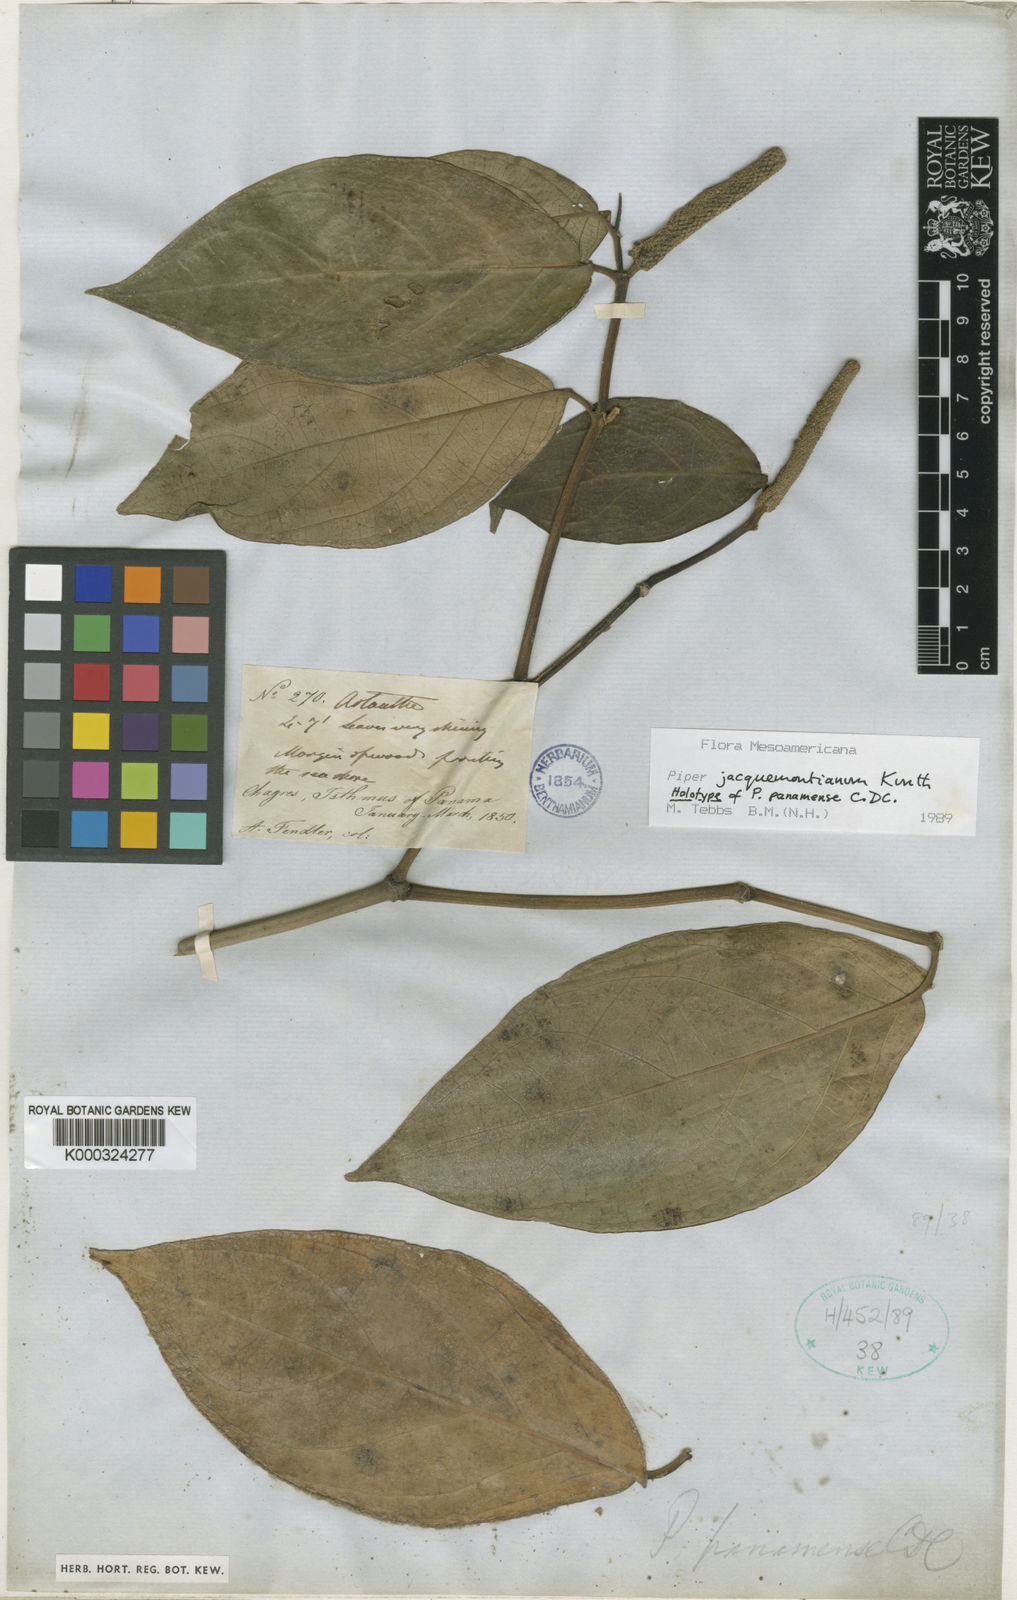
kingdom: Plantae
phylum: Tracheophyta
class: Magnoliopsida
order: Piperales
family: Piperaceae
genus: Piper
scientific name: Piper
